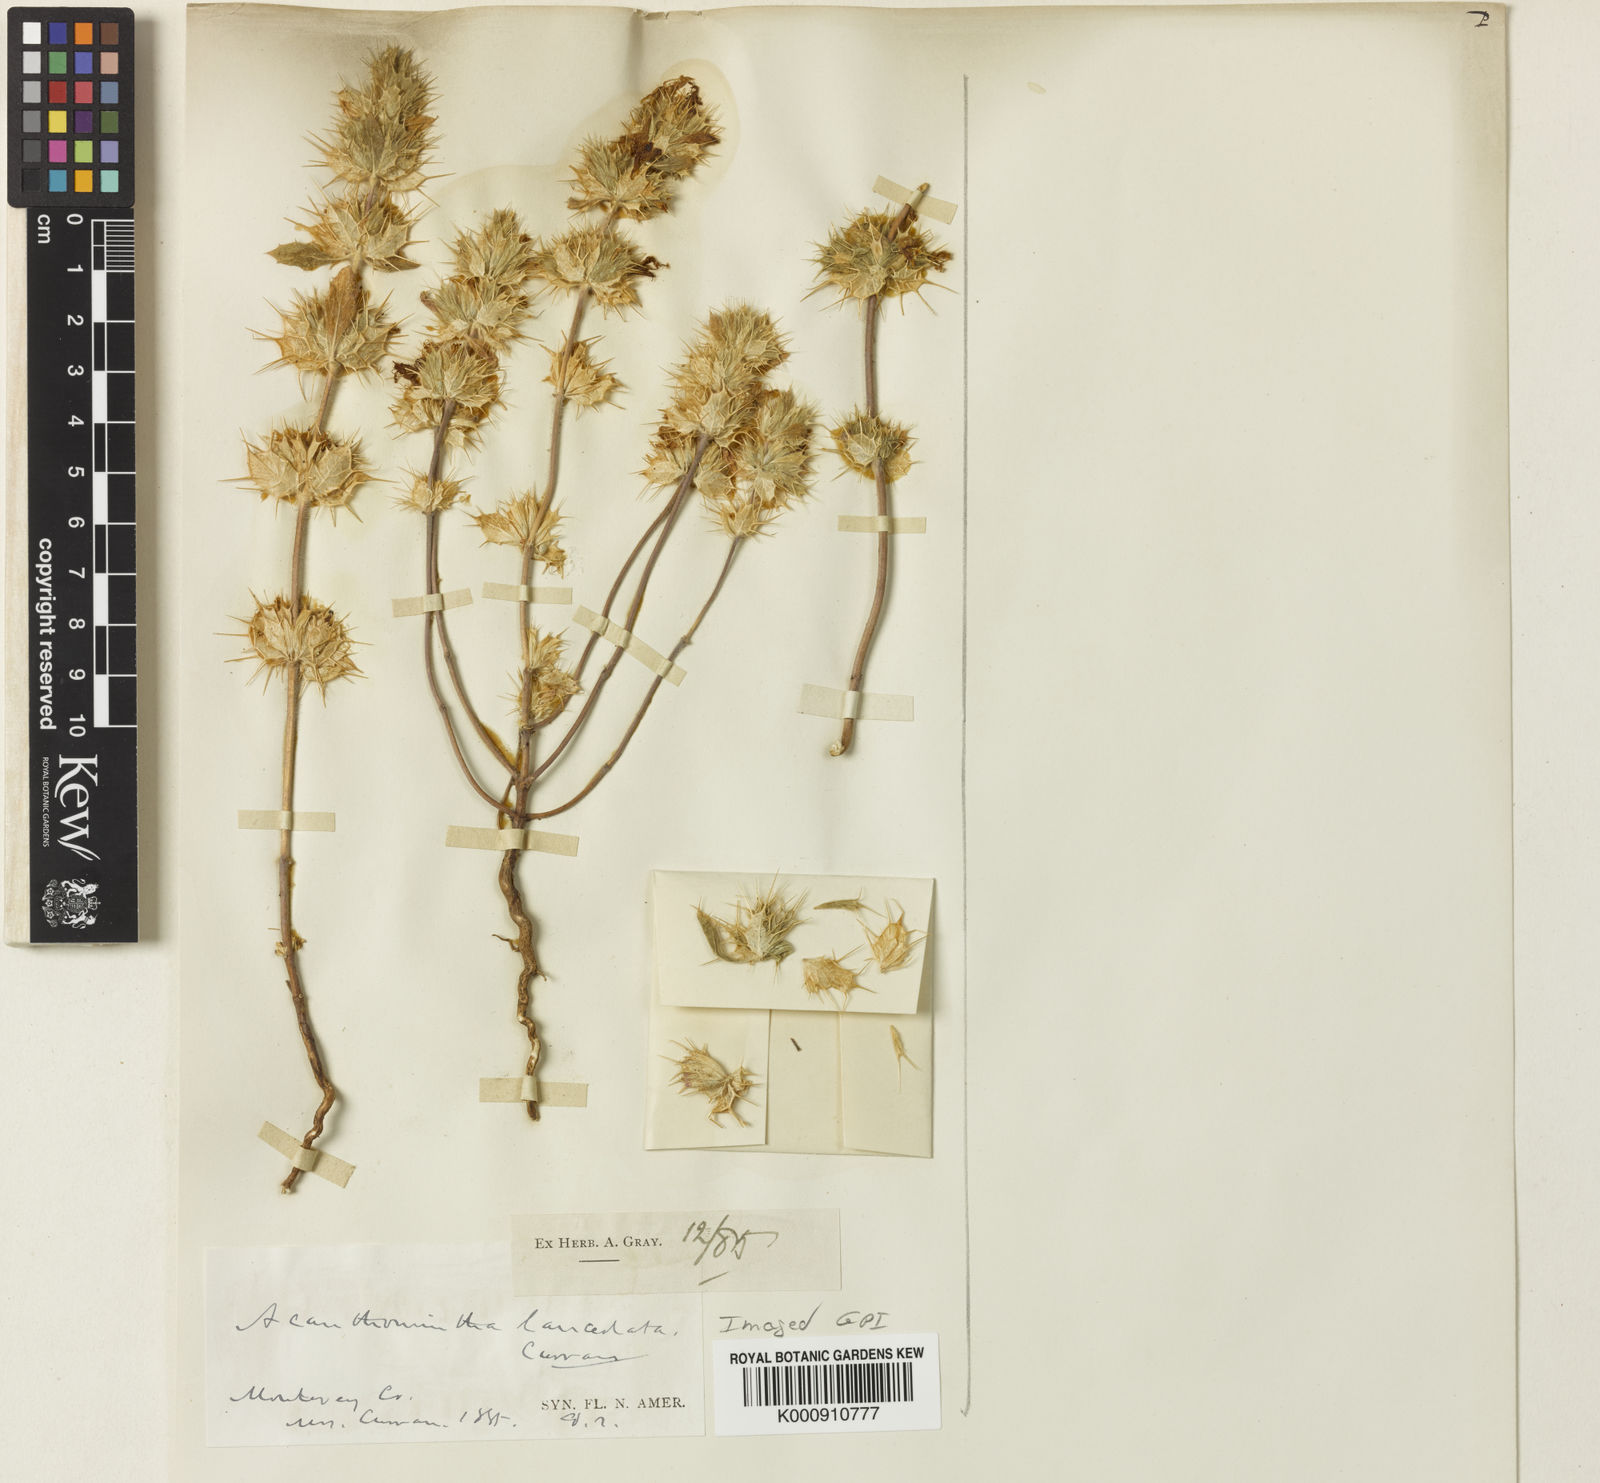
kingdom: Plantae
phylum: Tracheophyta
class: Magnoliopsida
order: Lamiales
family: Lamiaceae
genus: Acanthomintha
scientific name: Acanthomintha lanceolata
